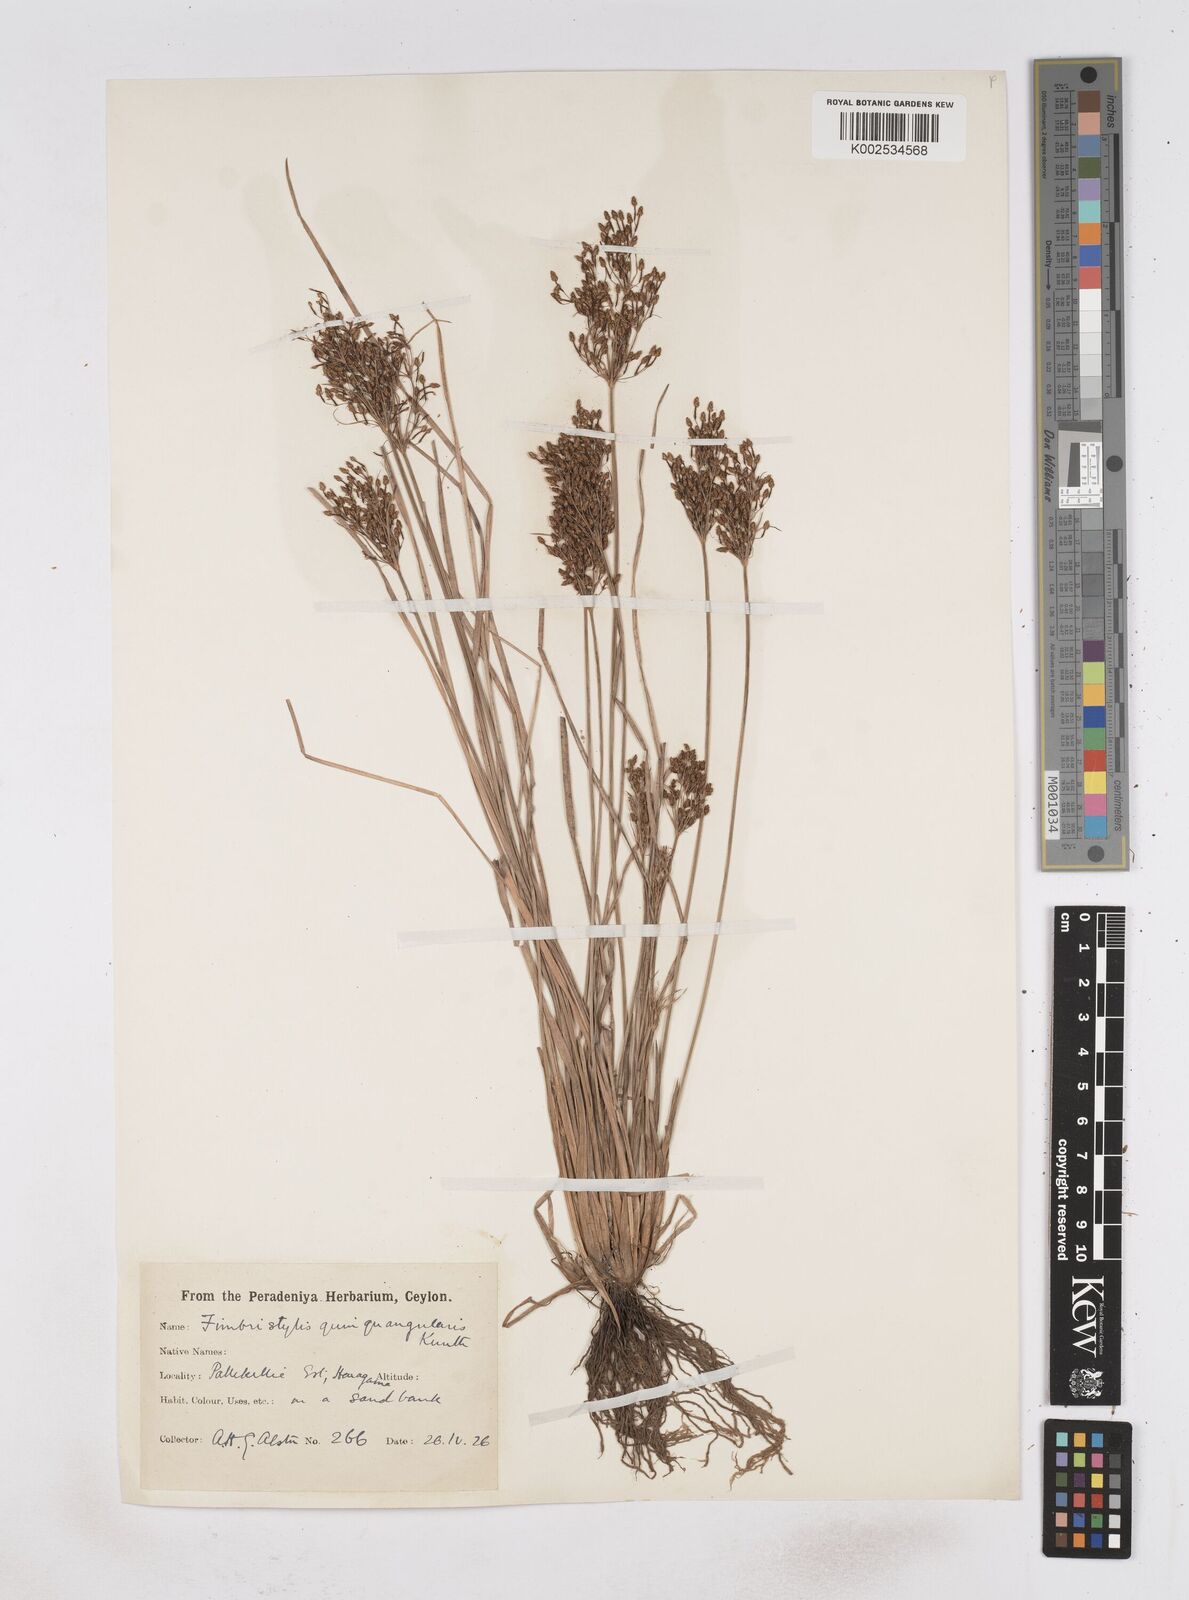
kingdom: Plantae
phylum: Tracheophyta
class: Liliopsida
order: Poales
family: Cyperaceae
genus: Fimbristylis
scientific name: Fimbristylis quinquangularis
